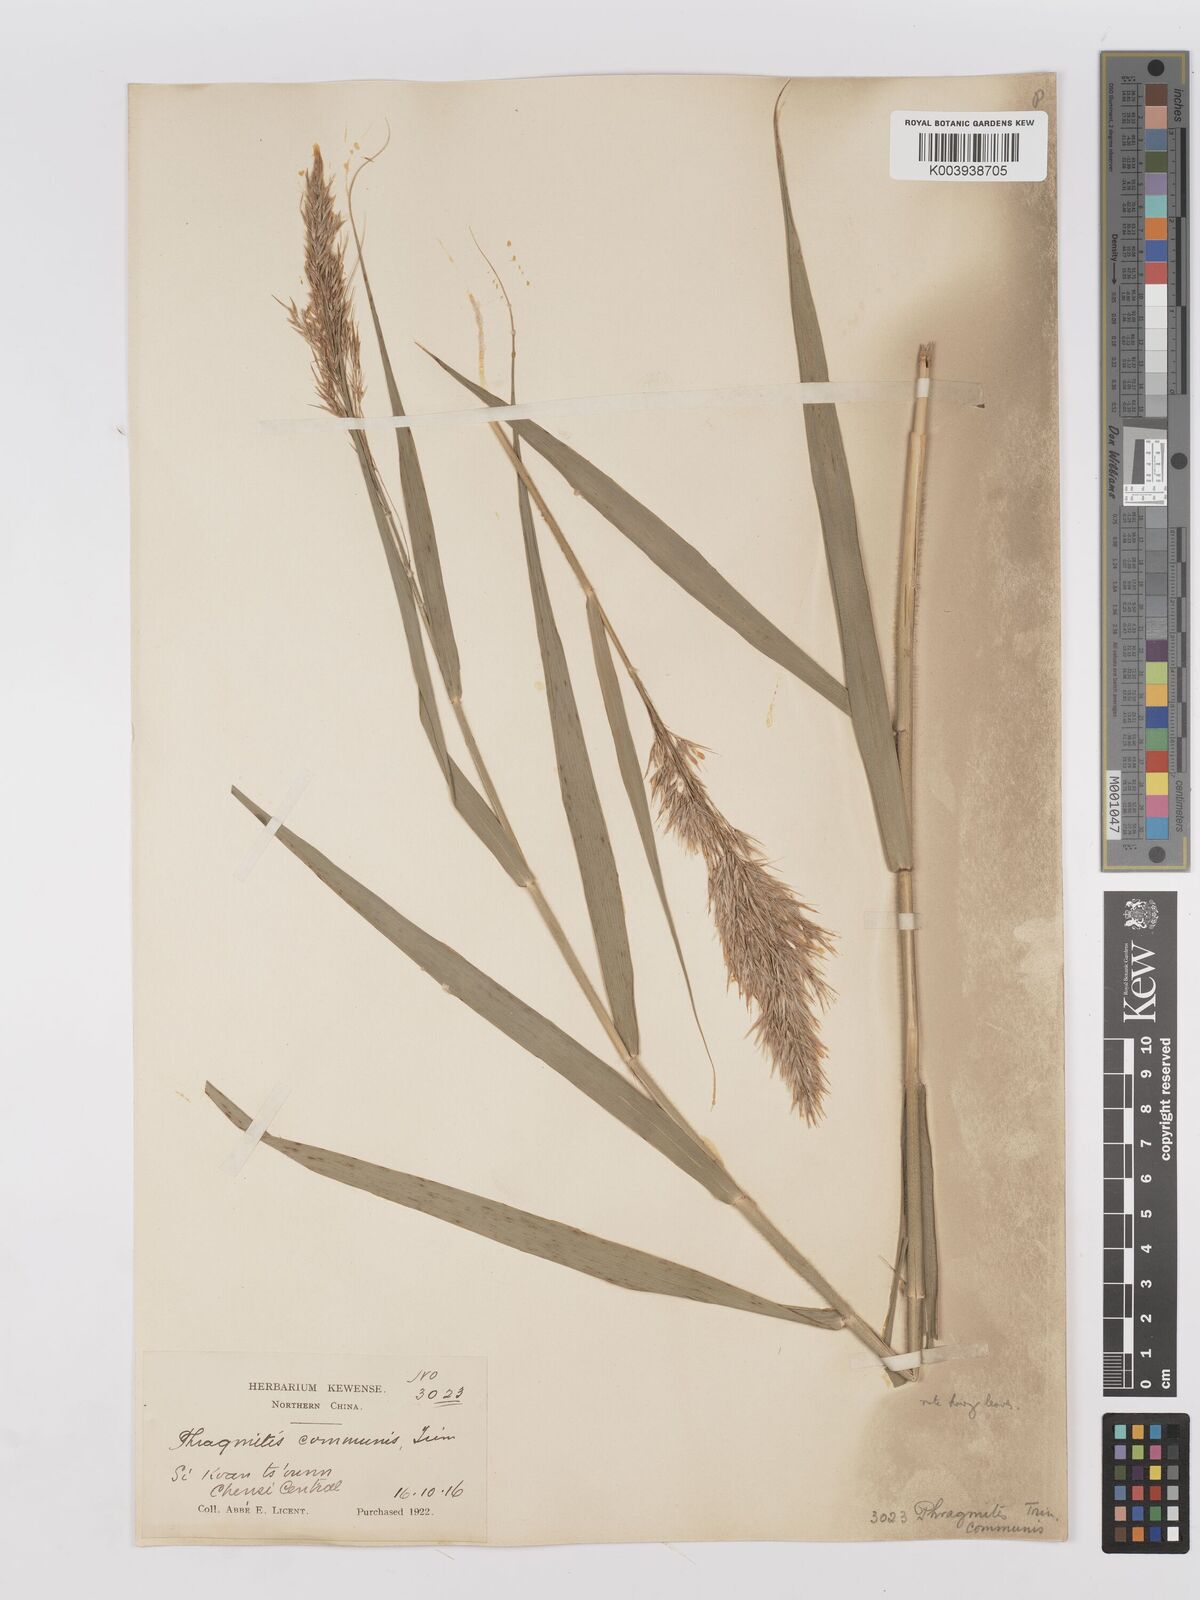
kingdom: Plantae
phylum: Tracheophyta
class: Liliopsida
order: Poales
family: Poaceae
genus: Phragmites
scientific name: Phragmites australis
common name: Common reed
